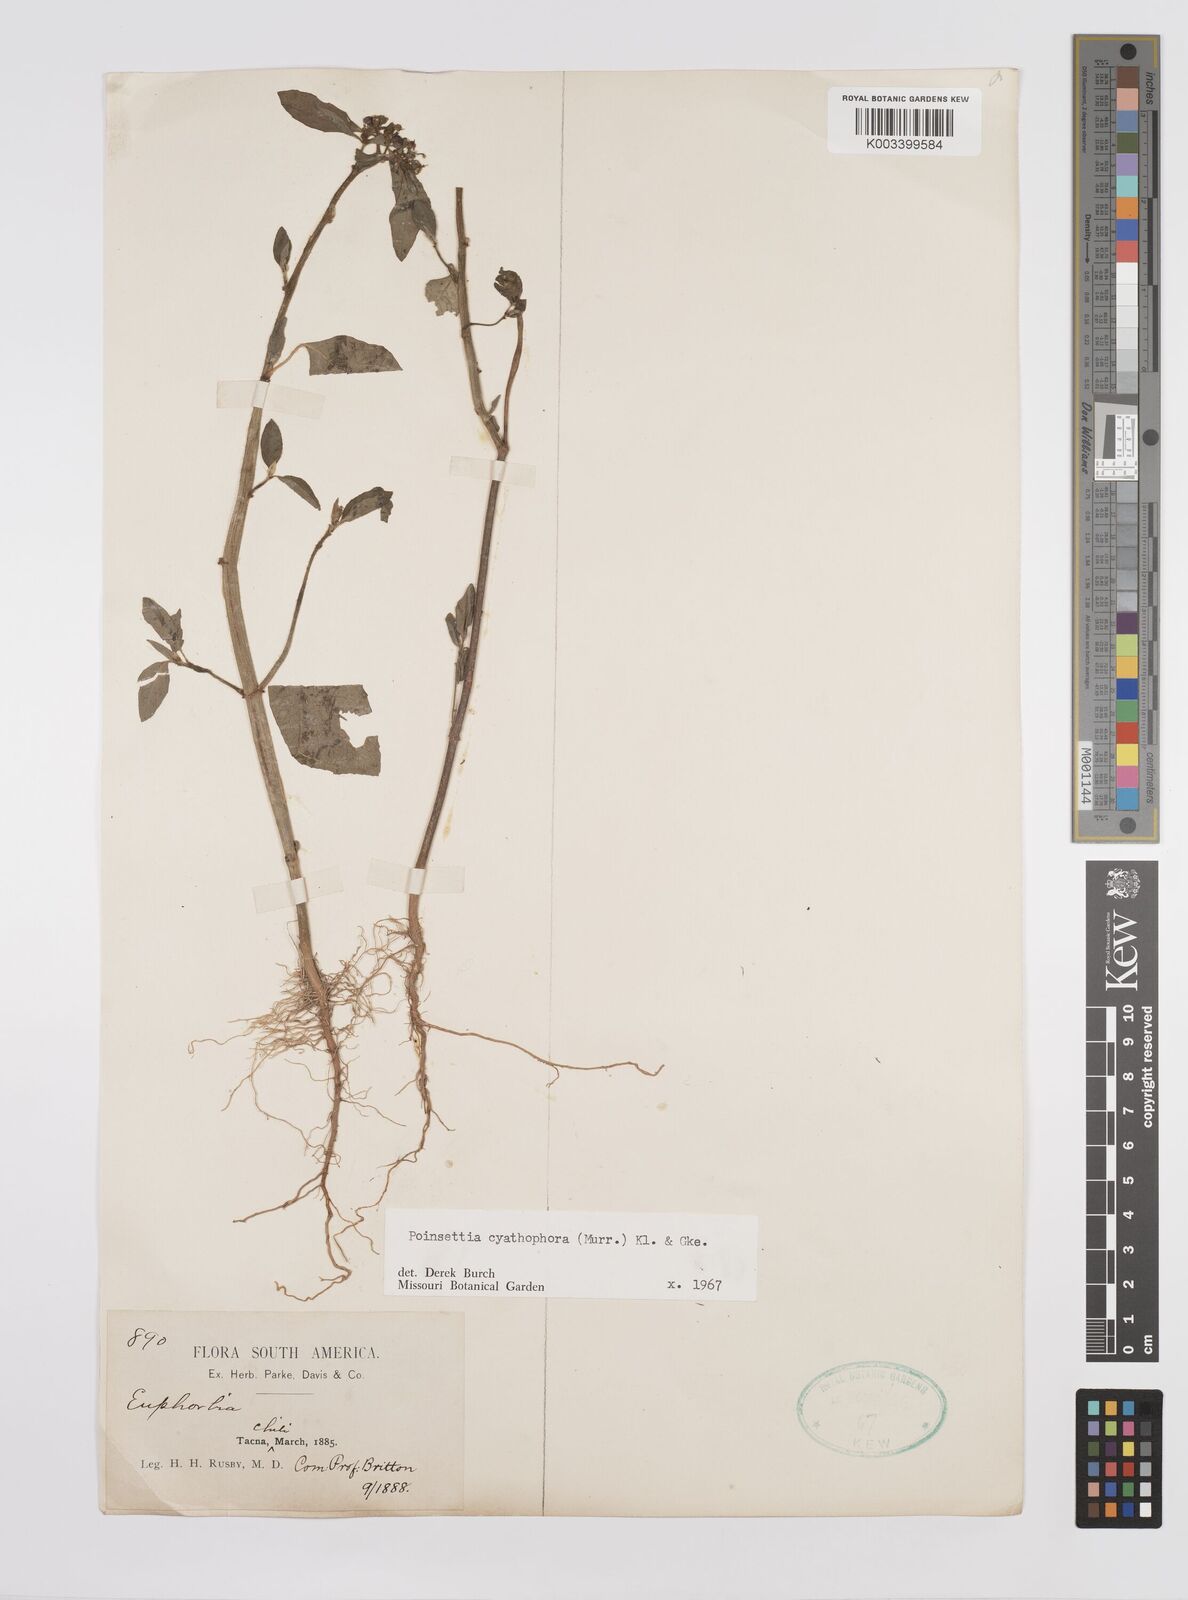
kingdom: Plantae
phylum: Tracheophyta
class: Magnoliopsida
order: Malpighiales
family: Euphorbiaceae
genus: Euphorbia
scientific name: Euphorbia heterophylla
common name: Mexican fireplant
